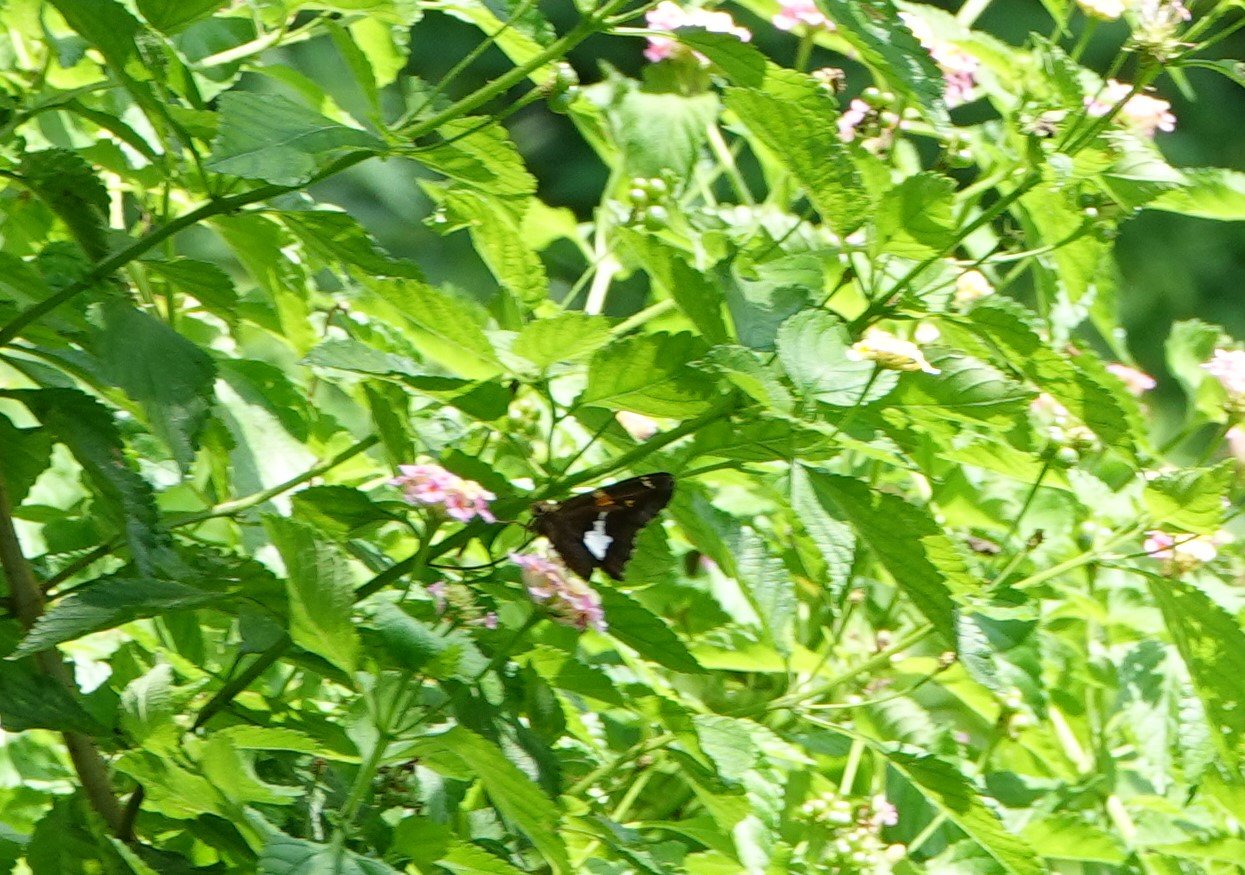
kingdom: Animalia
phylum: Arthropoda
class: Insecta
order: Lepidoptera
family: Hesperiidae
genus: Epargyreus
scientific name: Epargyreus clarus
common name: Silver-spotted Skipper
